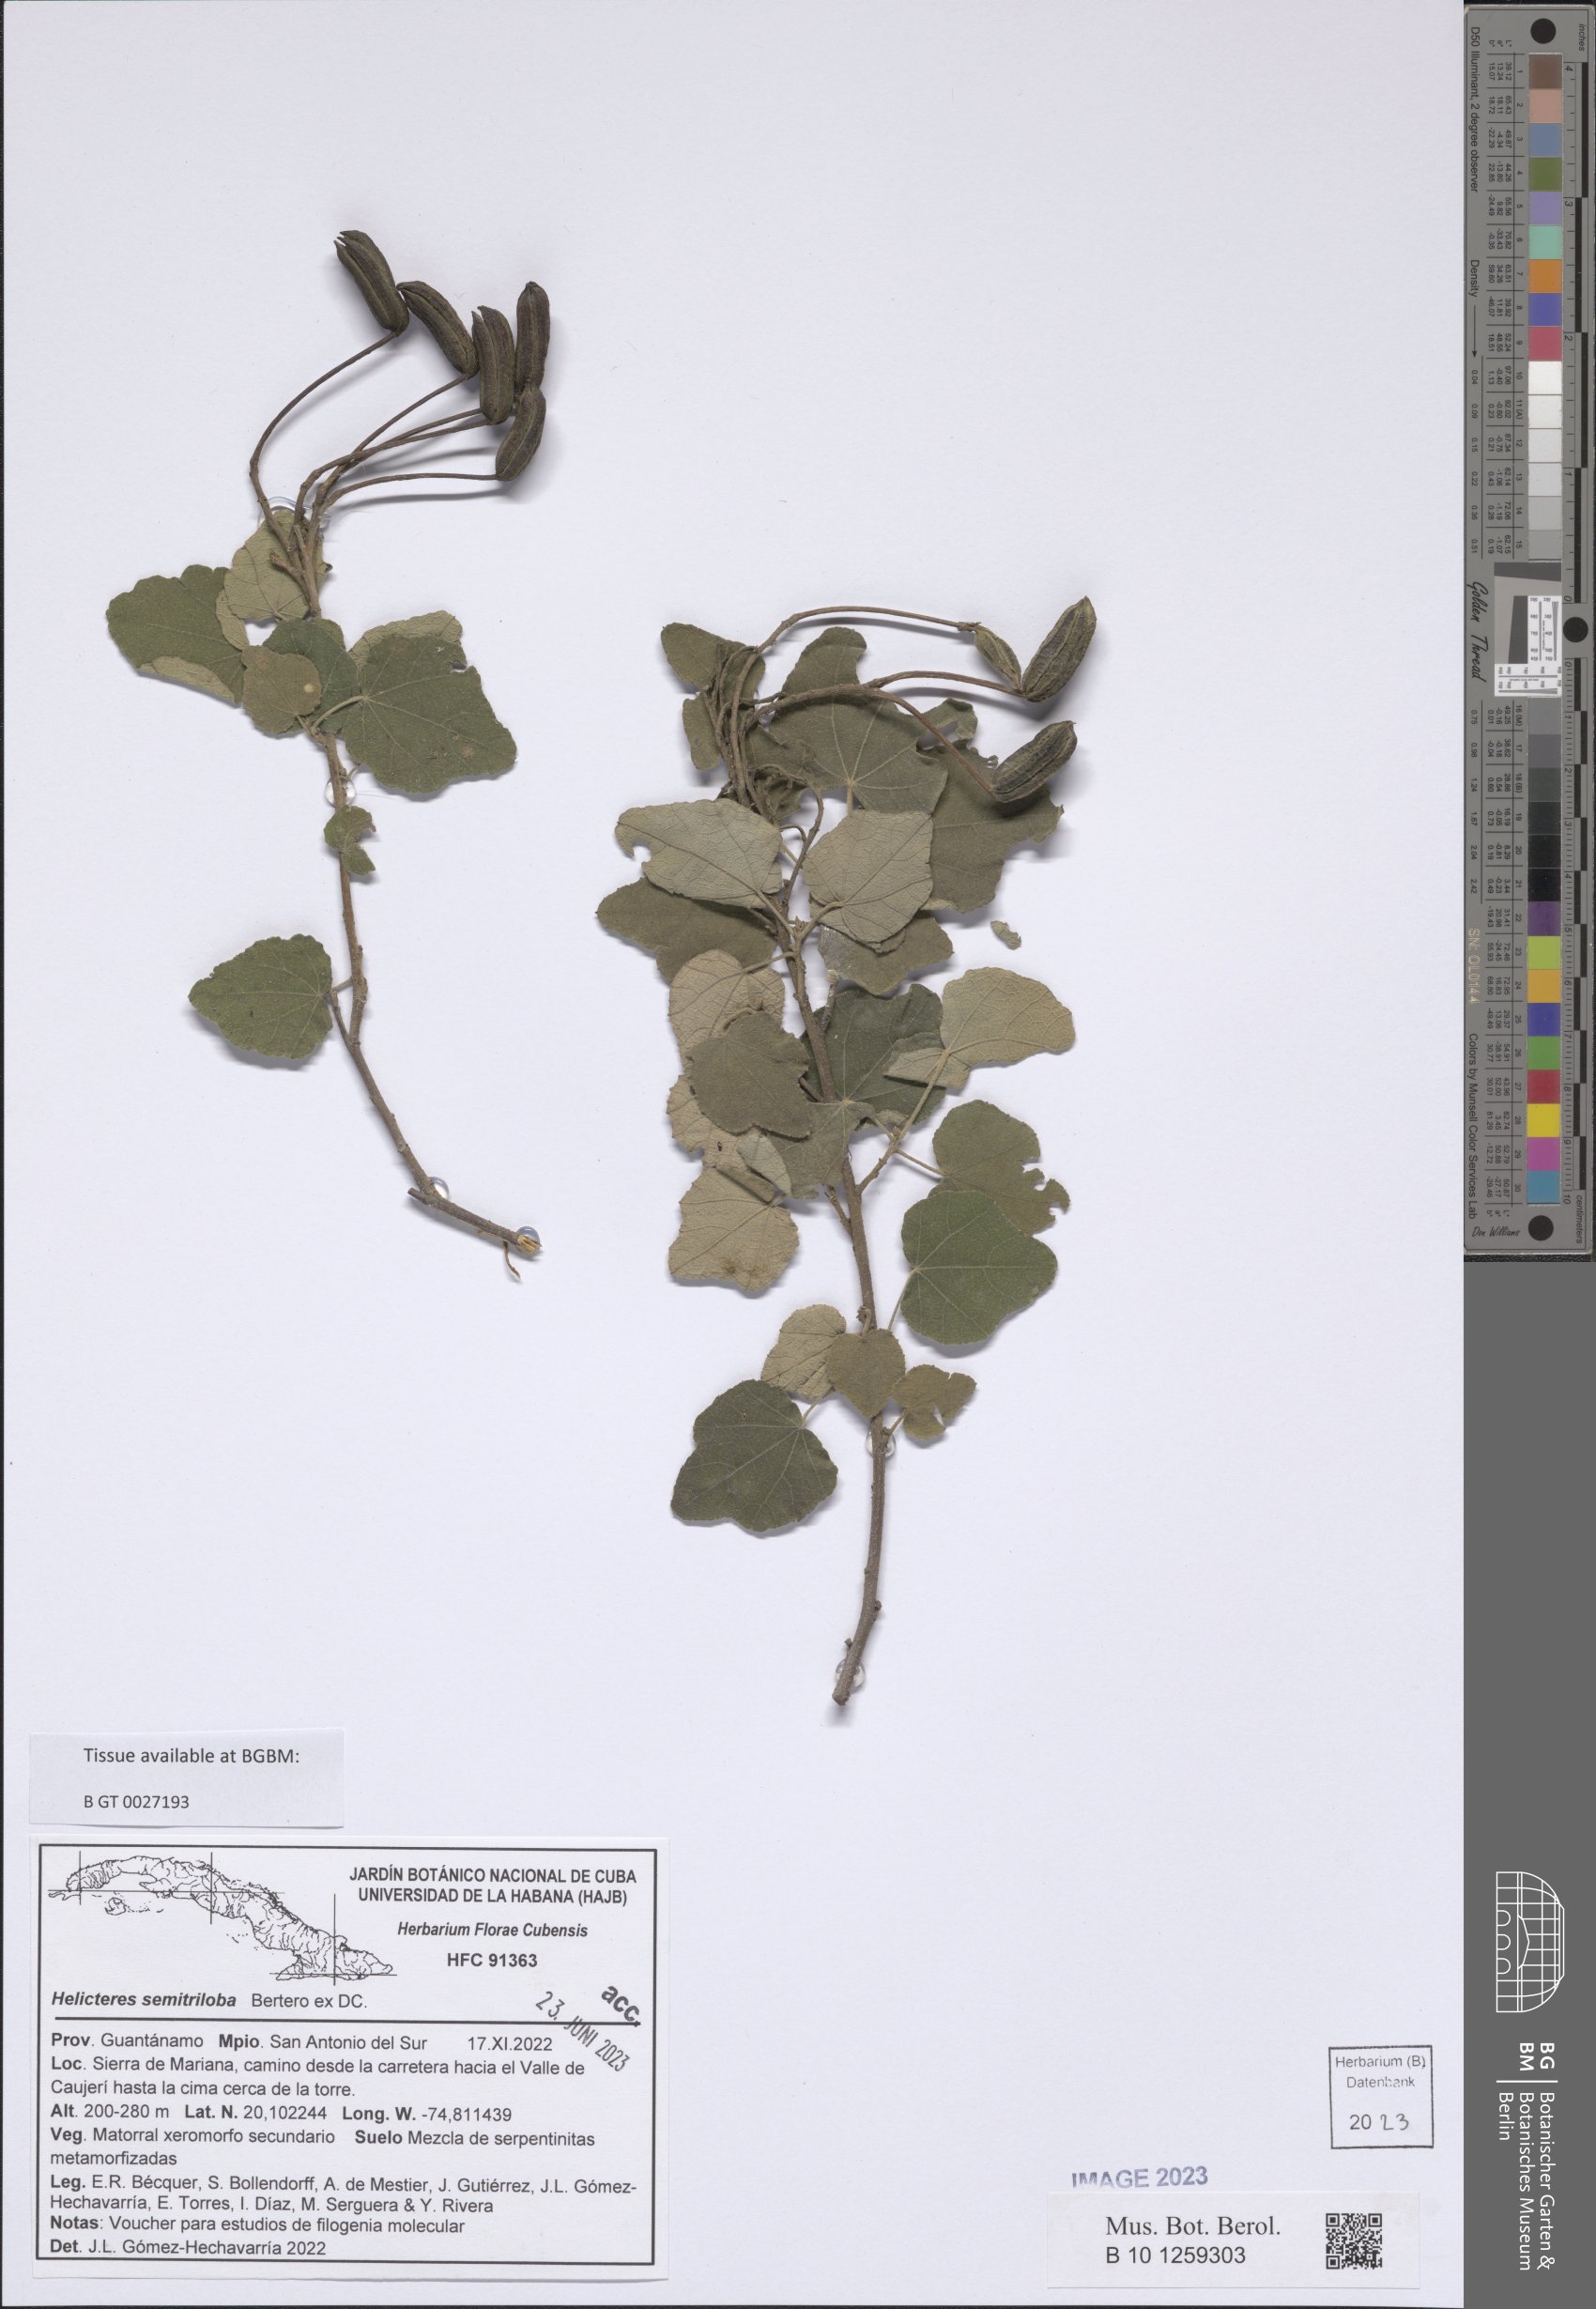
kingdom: Plantae
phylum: Tracheophyta
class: Magnoliopsida
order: Malvales
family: Malvaceae
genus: Helicteres
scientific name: Helicteres semitriloba
